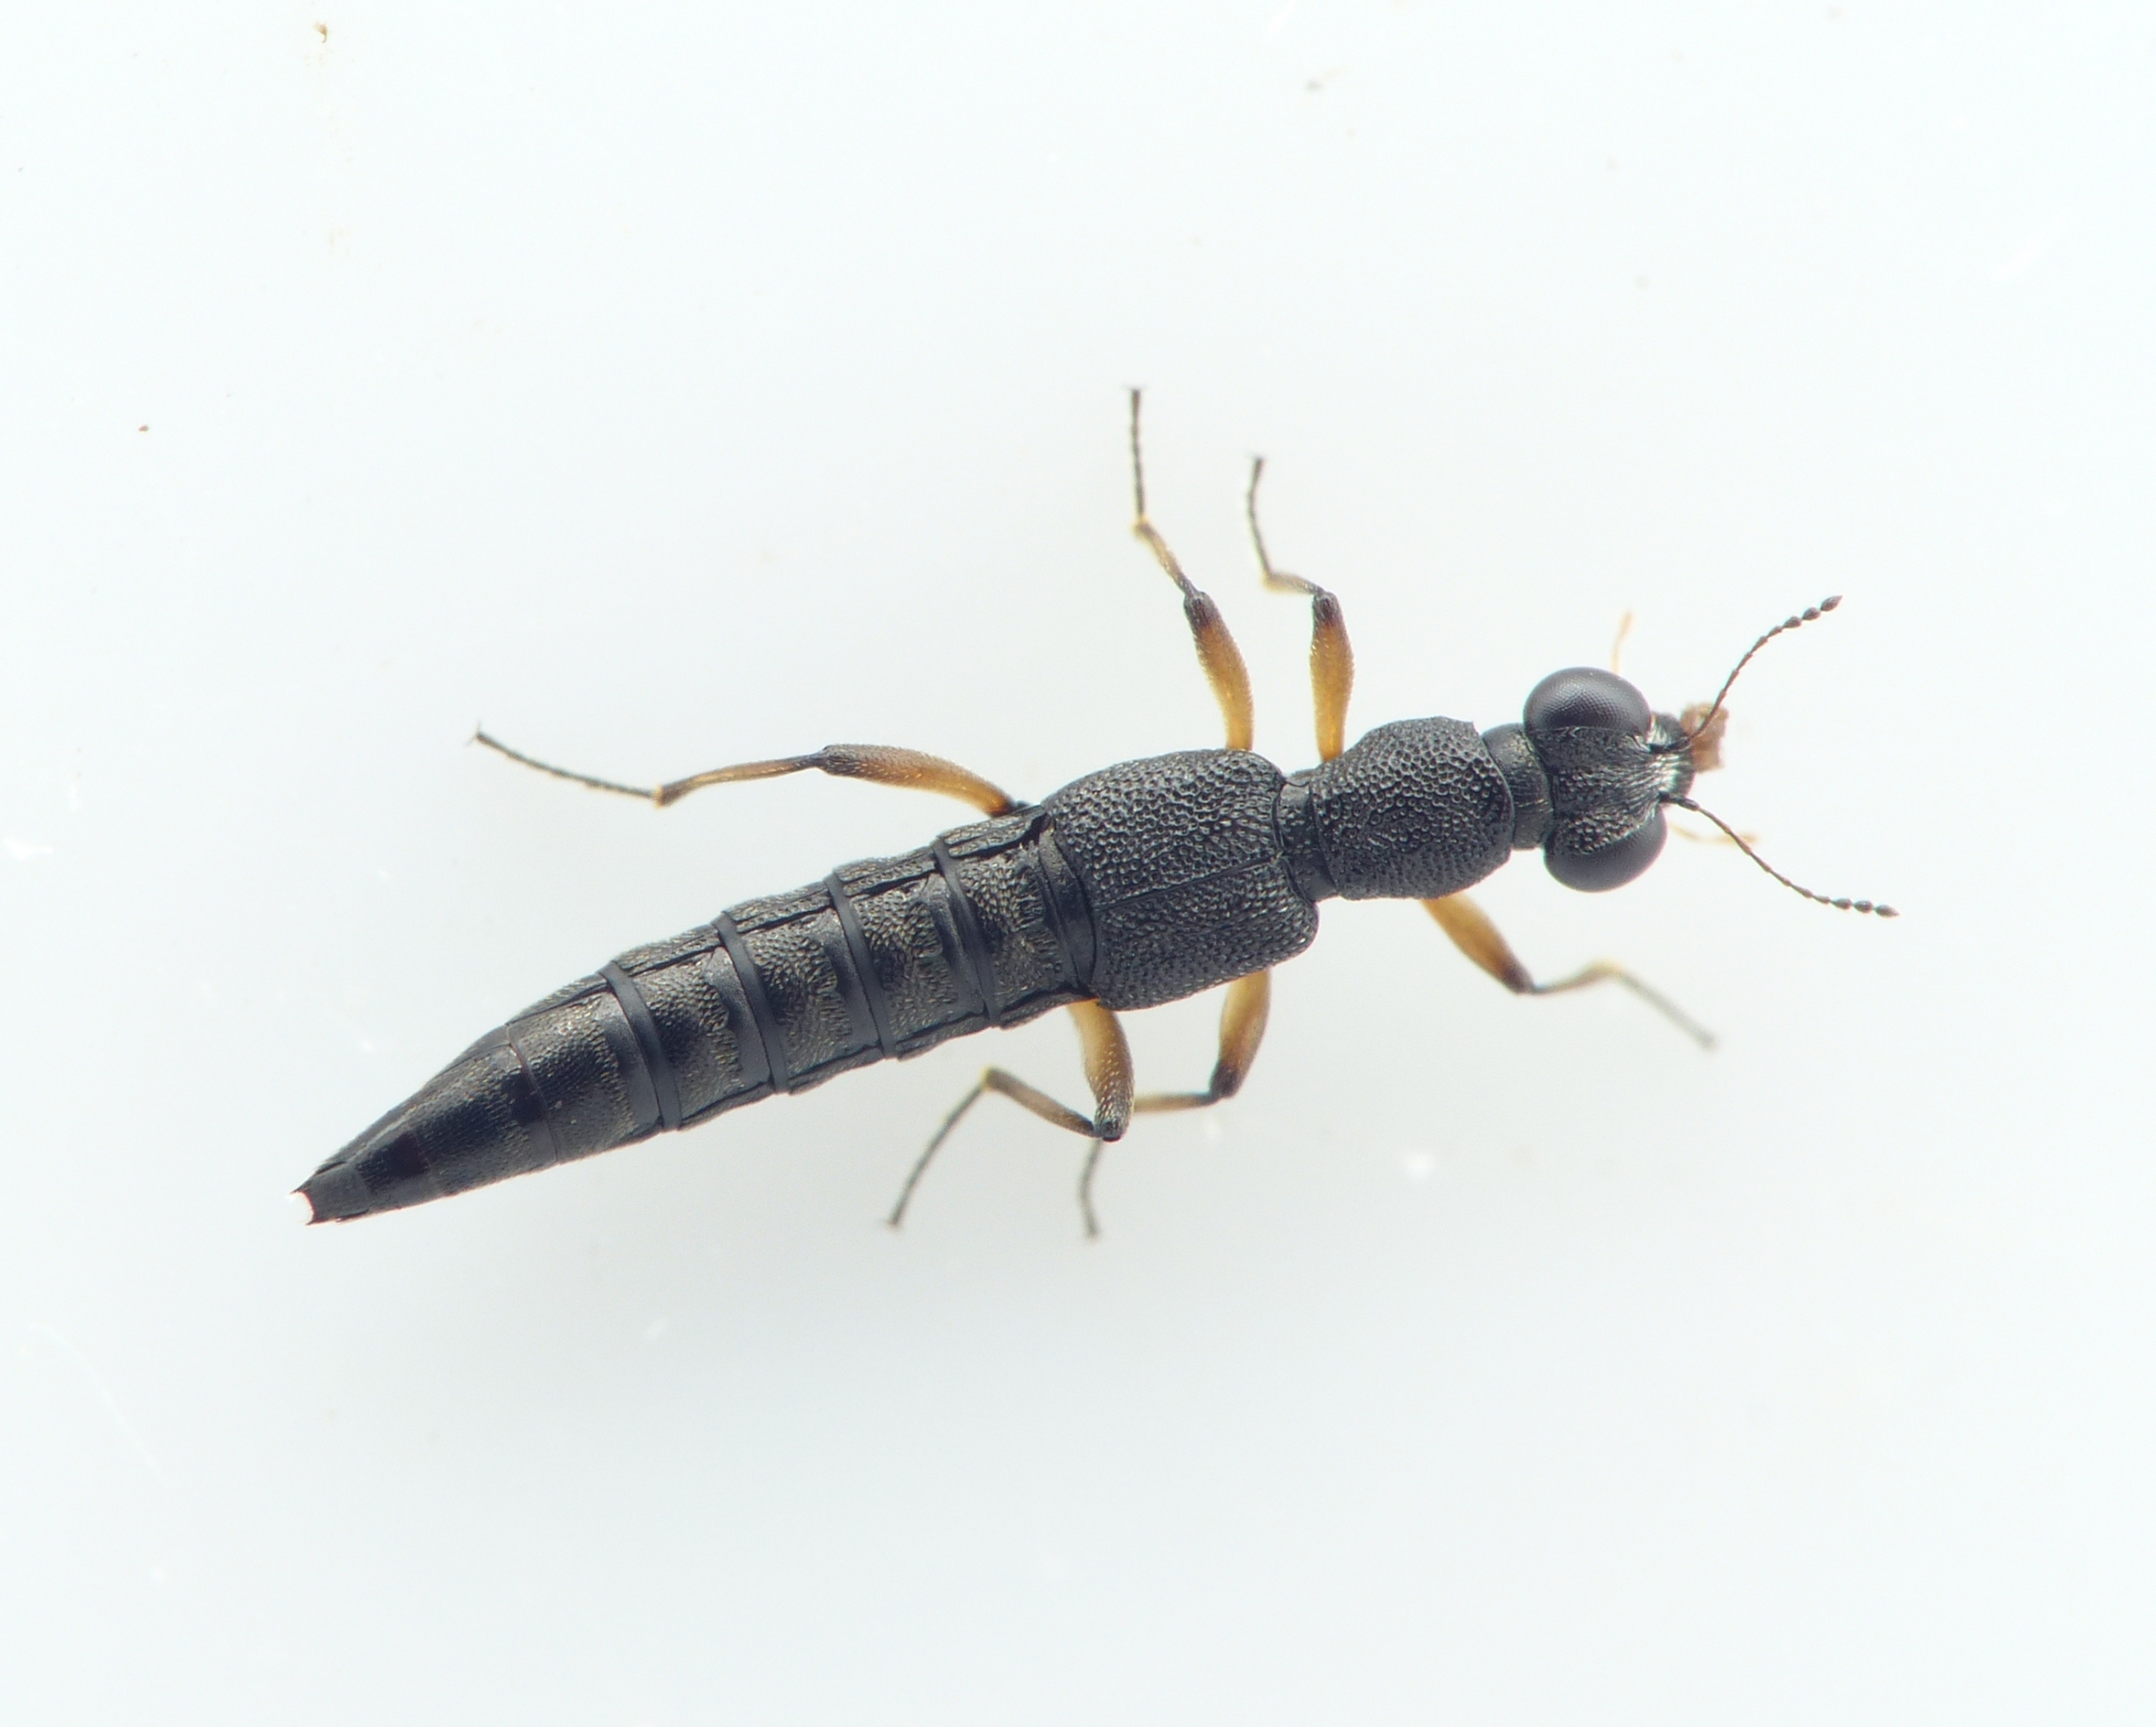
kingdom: Animalia
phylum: Arthropoda
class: Insecta
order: Coleoptera
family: Staphylinidae
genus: Stenus
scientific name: Stenus clavicornis
